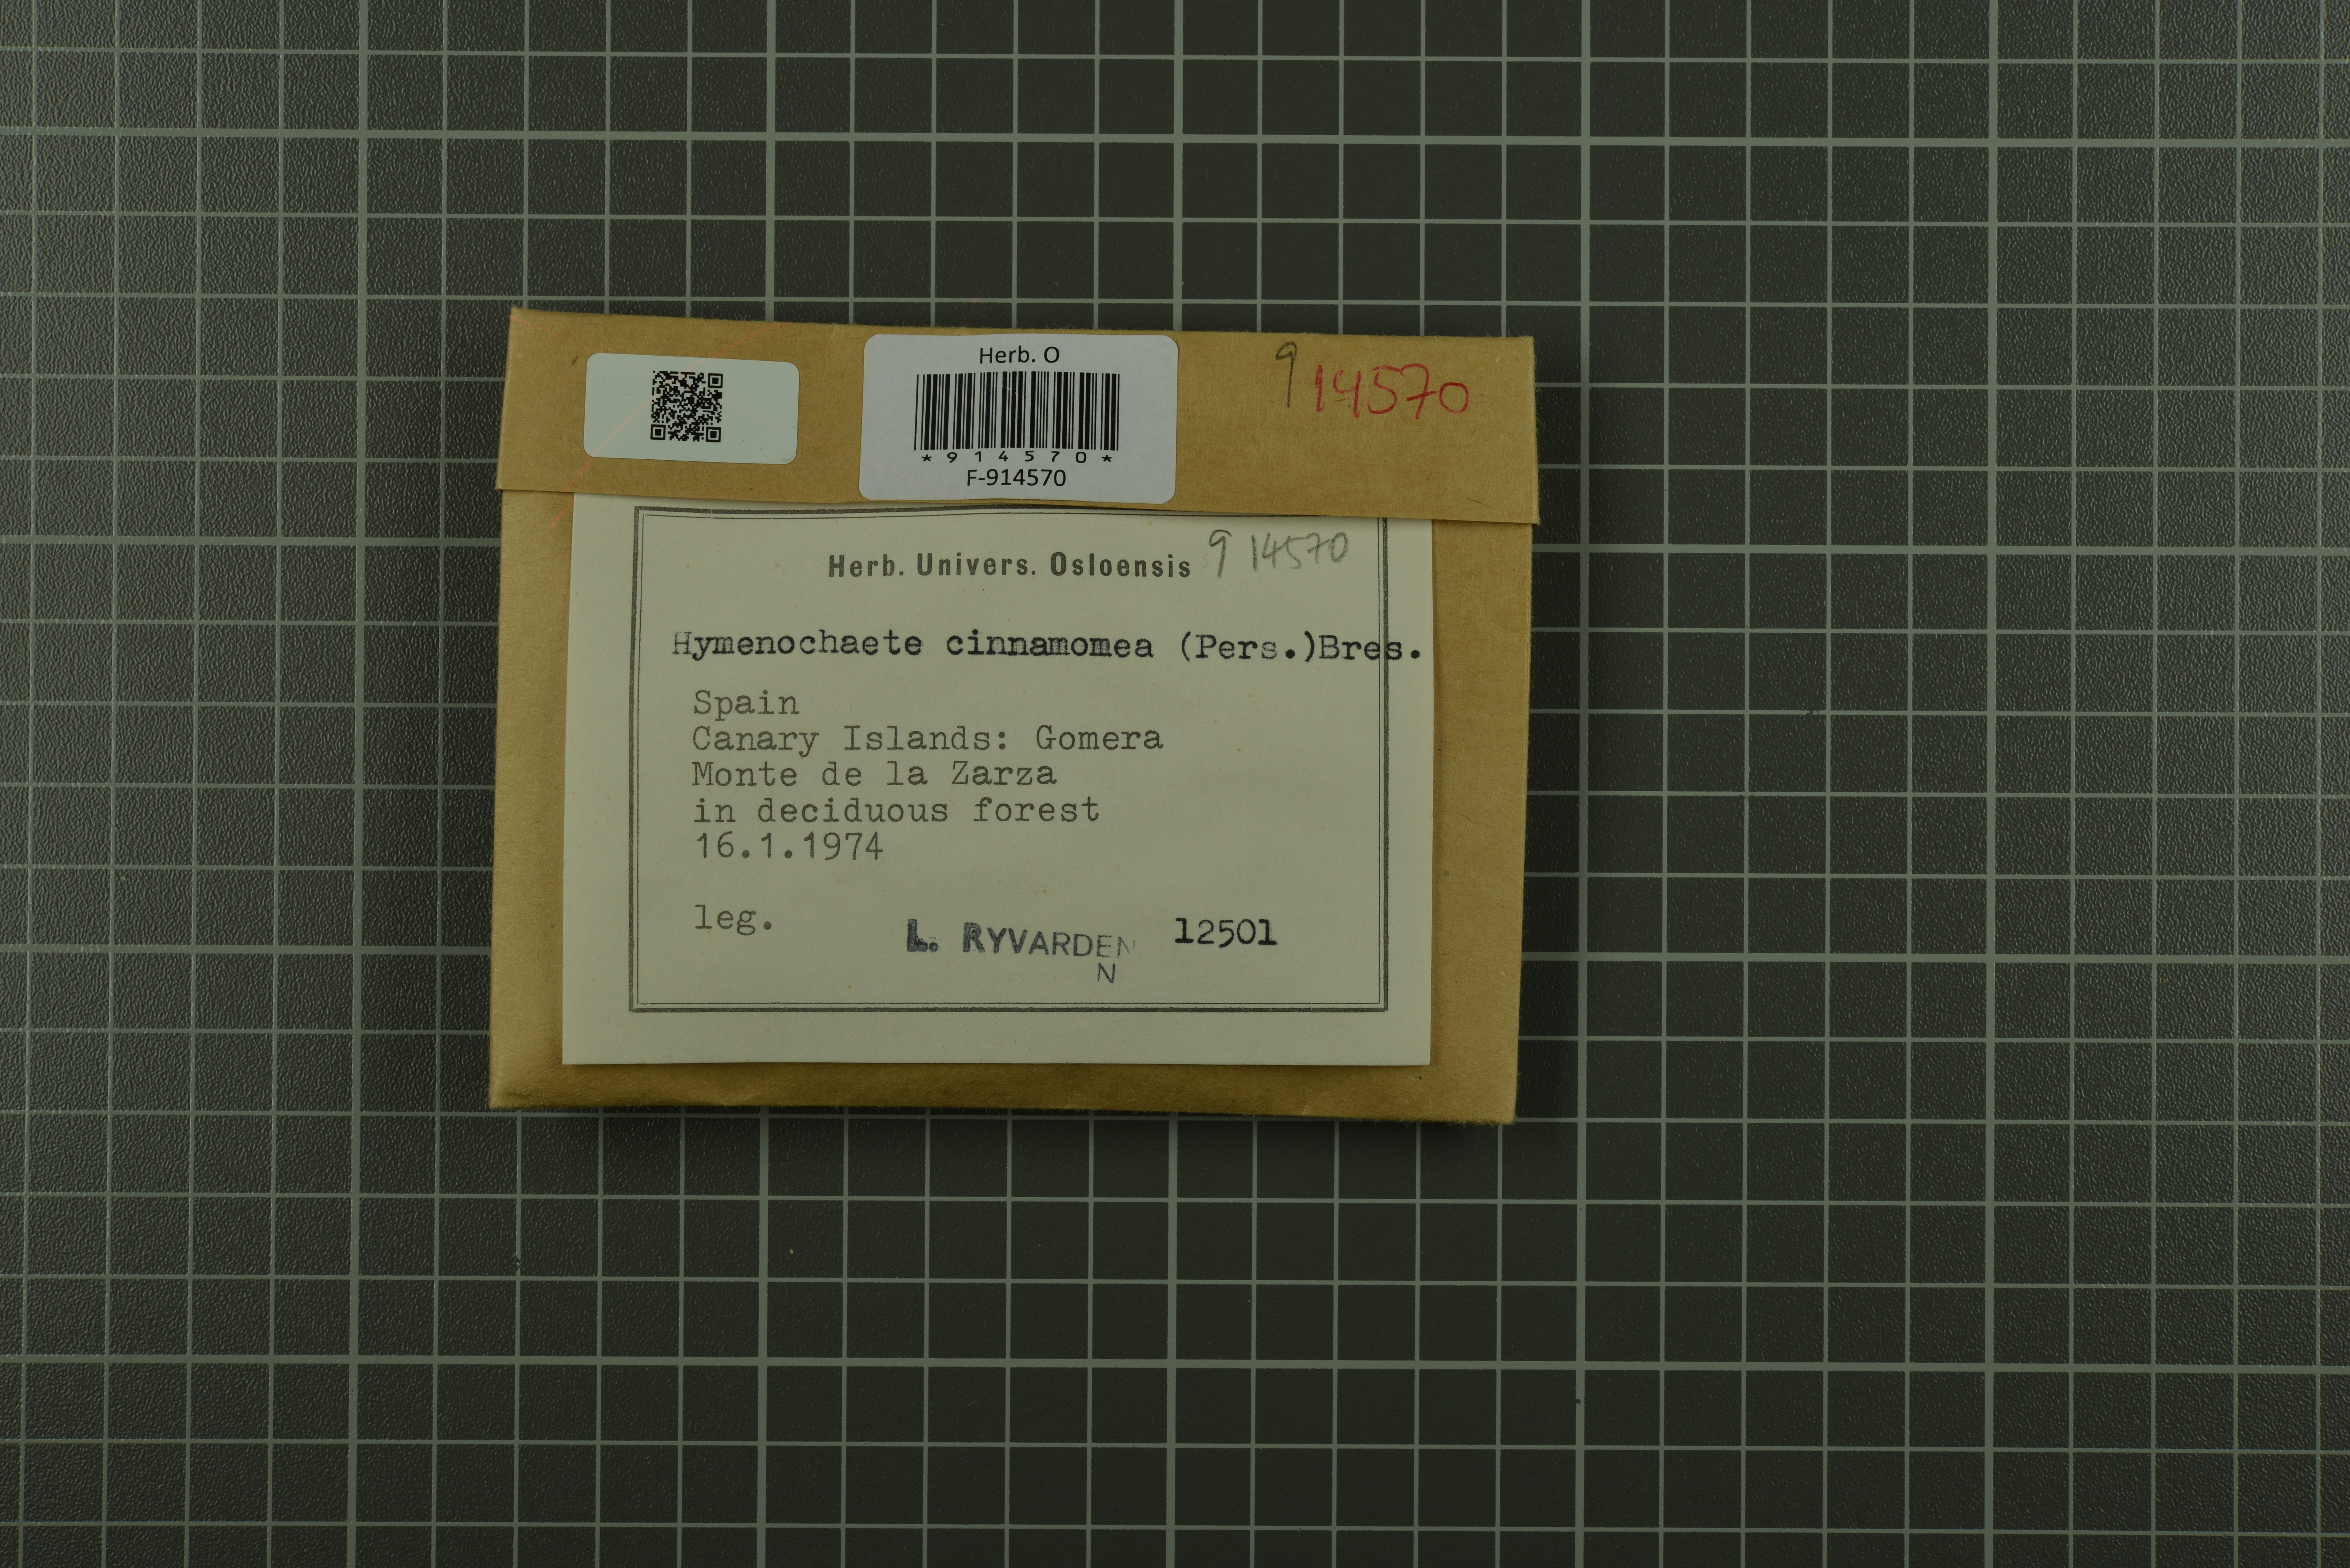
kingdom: Fungi
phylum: Basidiomycota
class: Agaricomycetes
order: Hymenochaetales
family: Hymenochaetaceae
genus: Hymenochaete
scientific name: Hymenochaete cinnamomea
